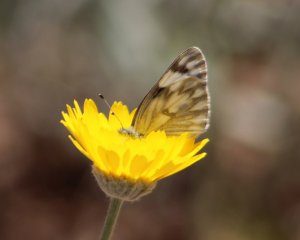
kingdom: Animalia
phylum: Arthropoda
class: Insecta
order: Lepidoptera
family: Pieridae
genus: Pontia
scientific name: Pontia protodice
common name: Checkered White
